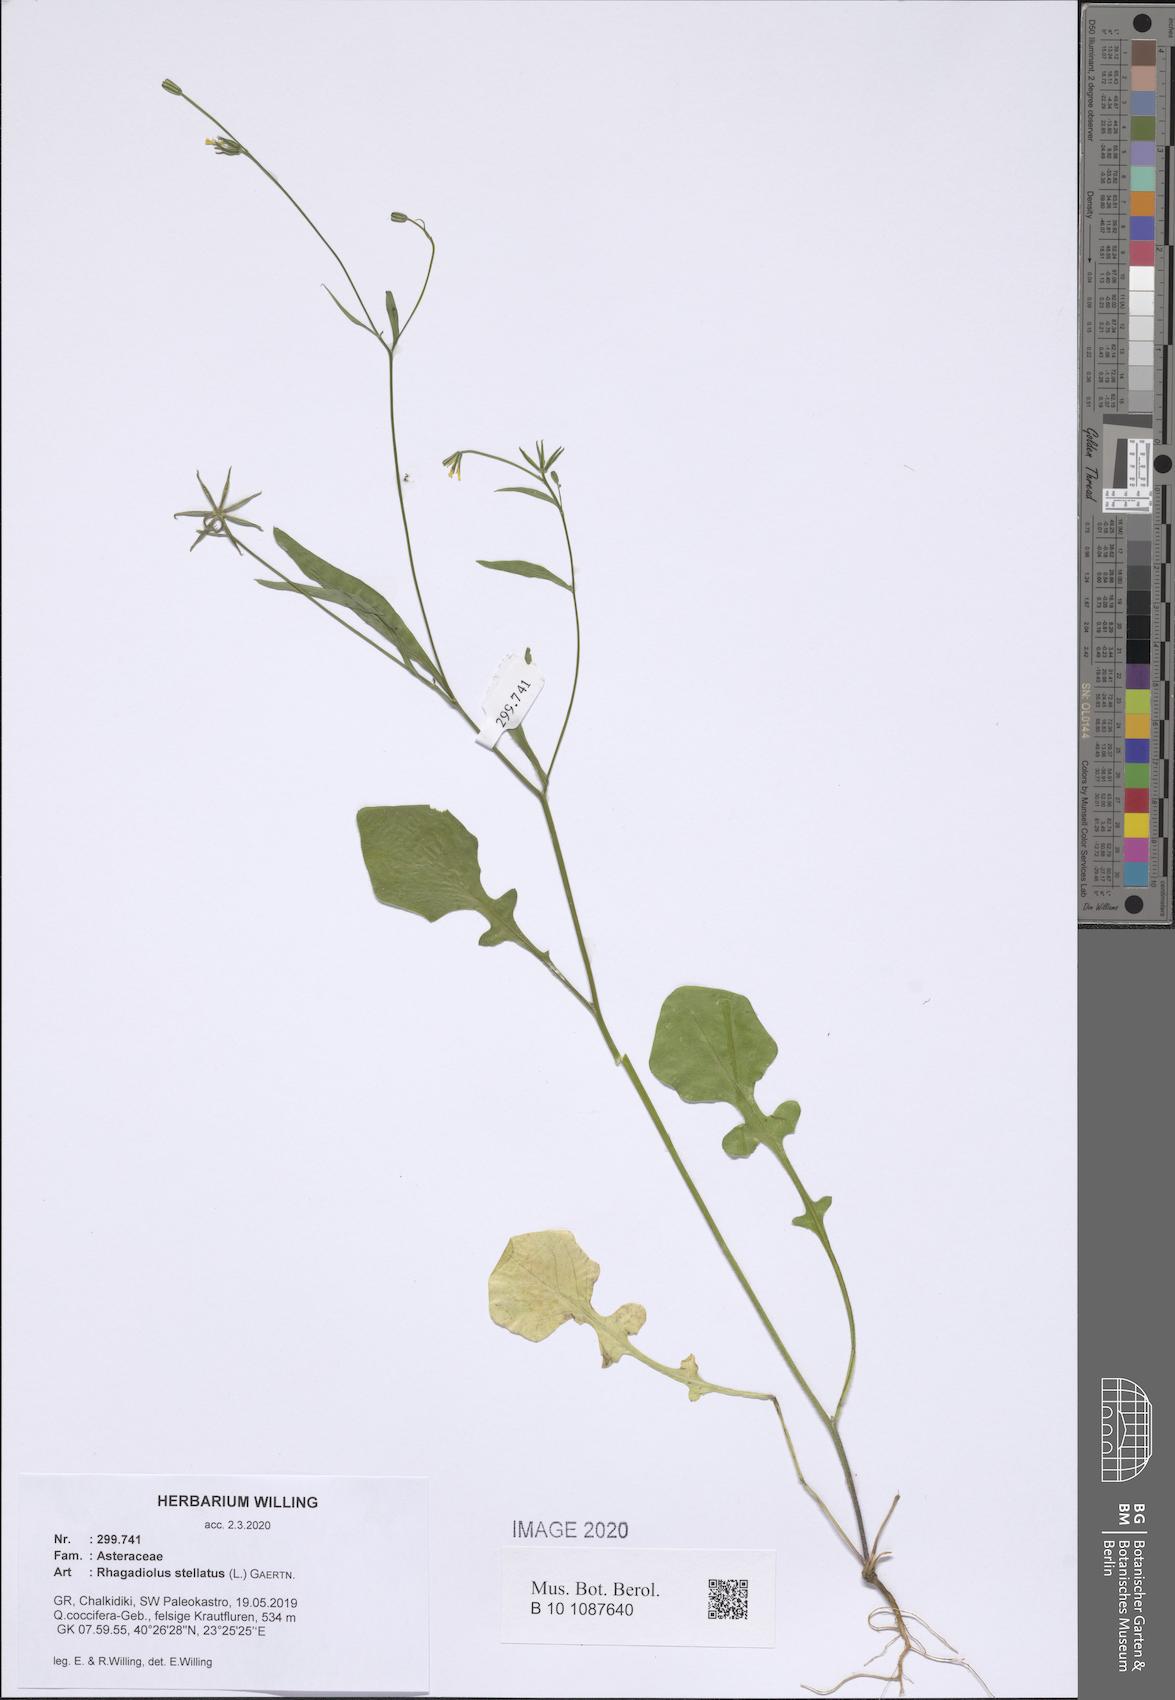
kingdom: Plantae
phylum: Tracheophyta
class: Magnoliopsida
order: Asterales
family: Asteraceae
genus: Rhagadiolus
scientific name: Rhagadiolus stellatus
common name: Star hawkbit
